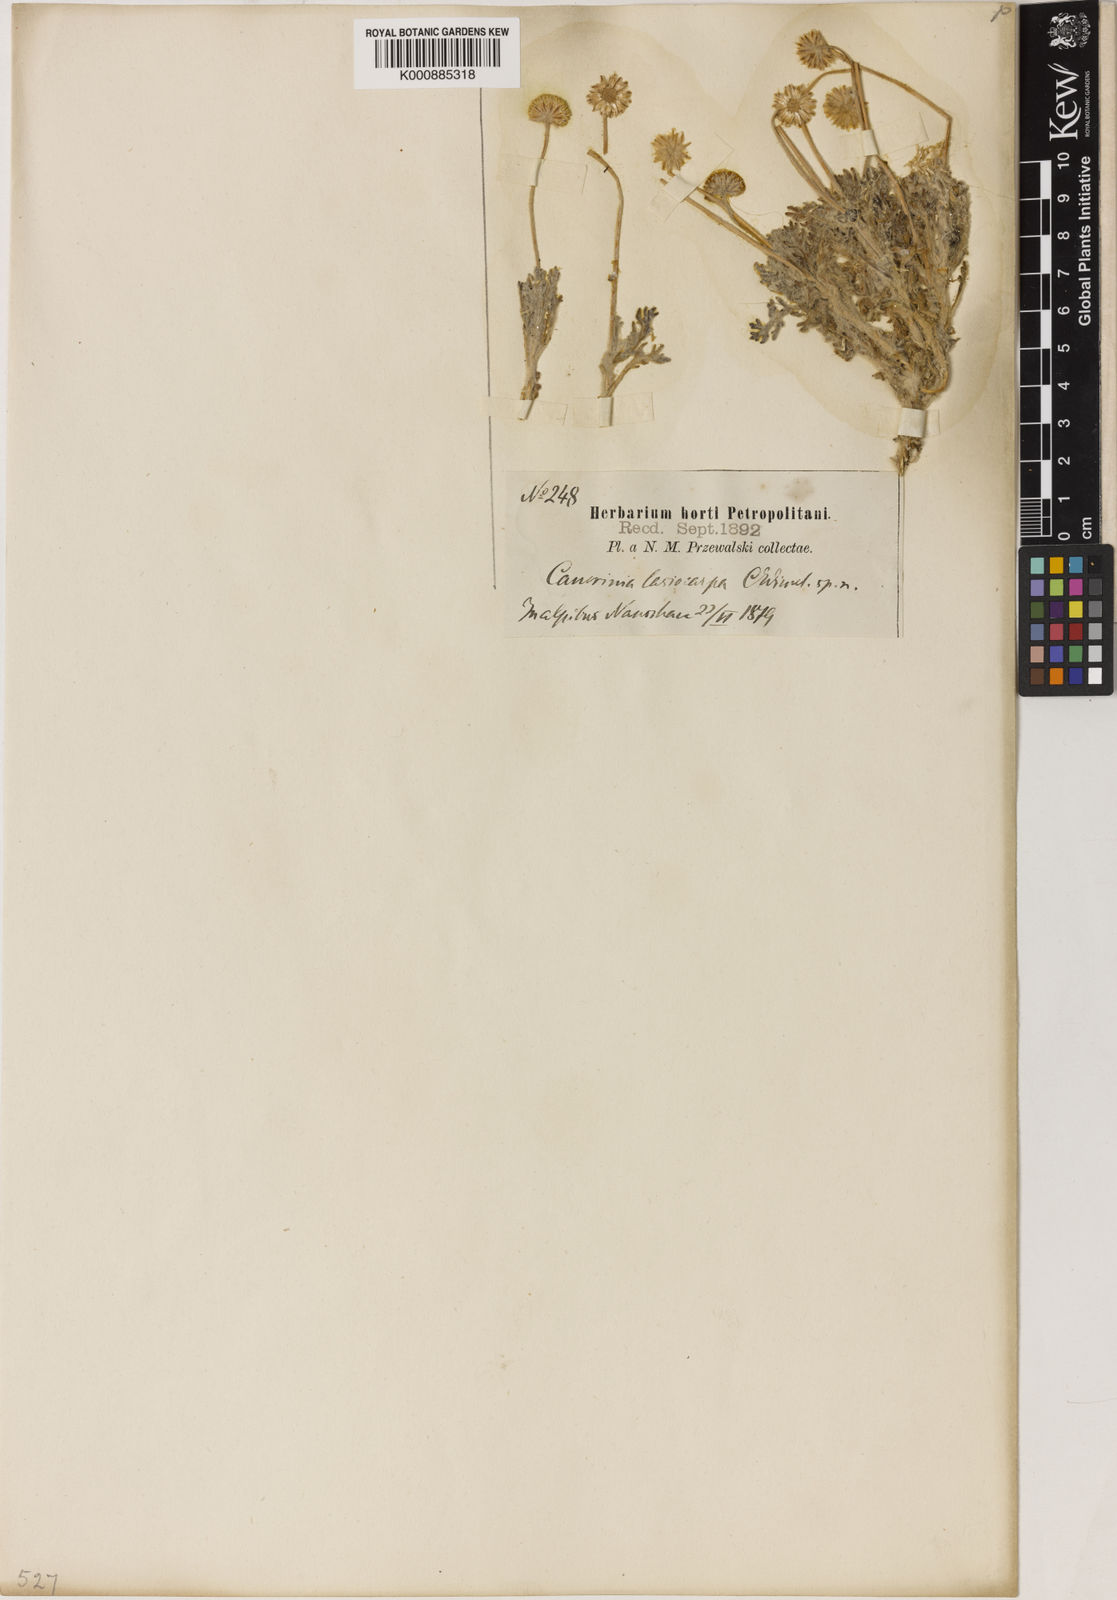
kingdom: Plantae
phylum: Tracheophyta
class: Magnoliopsida
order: Asterales
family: Asteraceae
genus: Microcephala
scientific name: Microcephala lamellata
